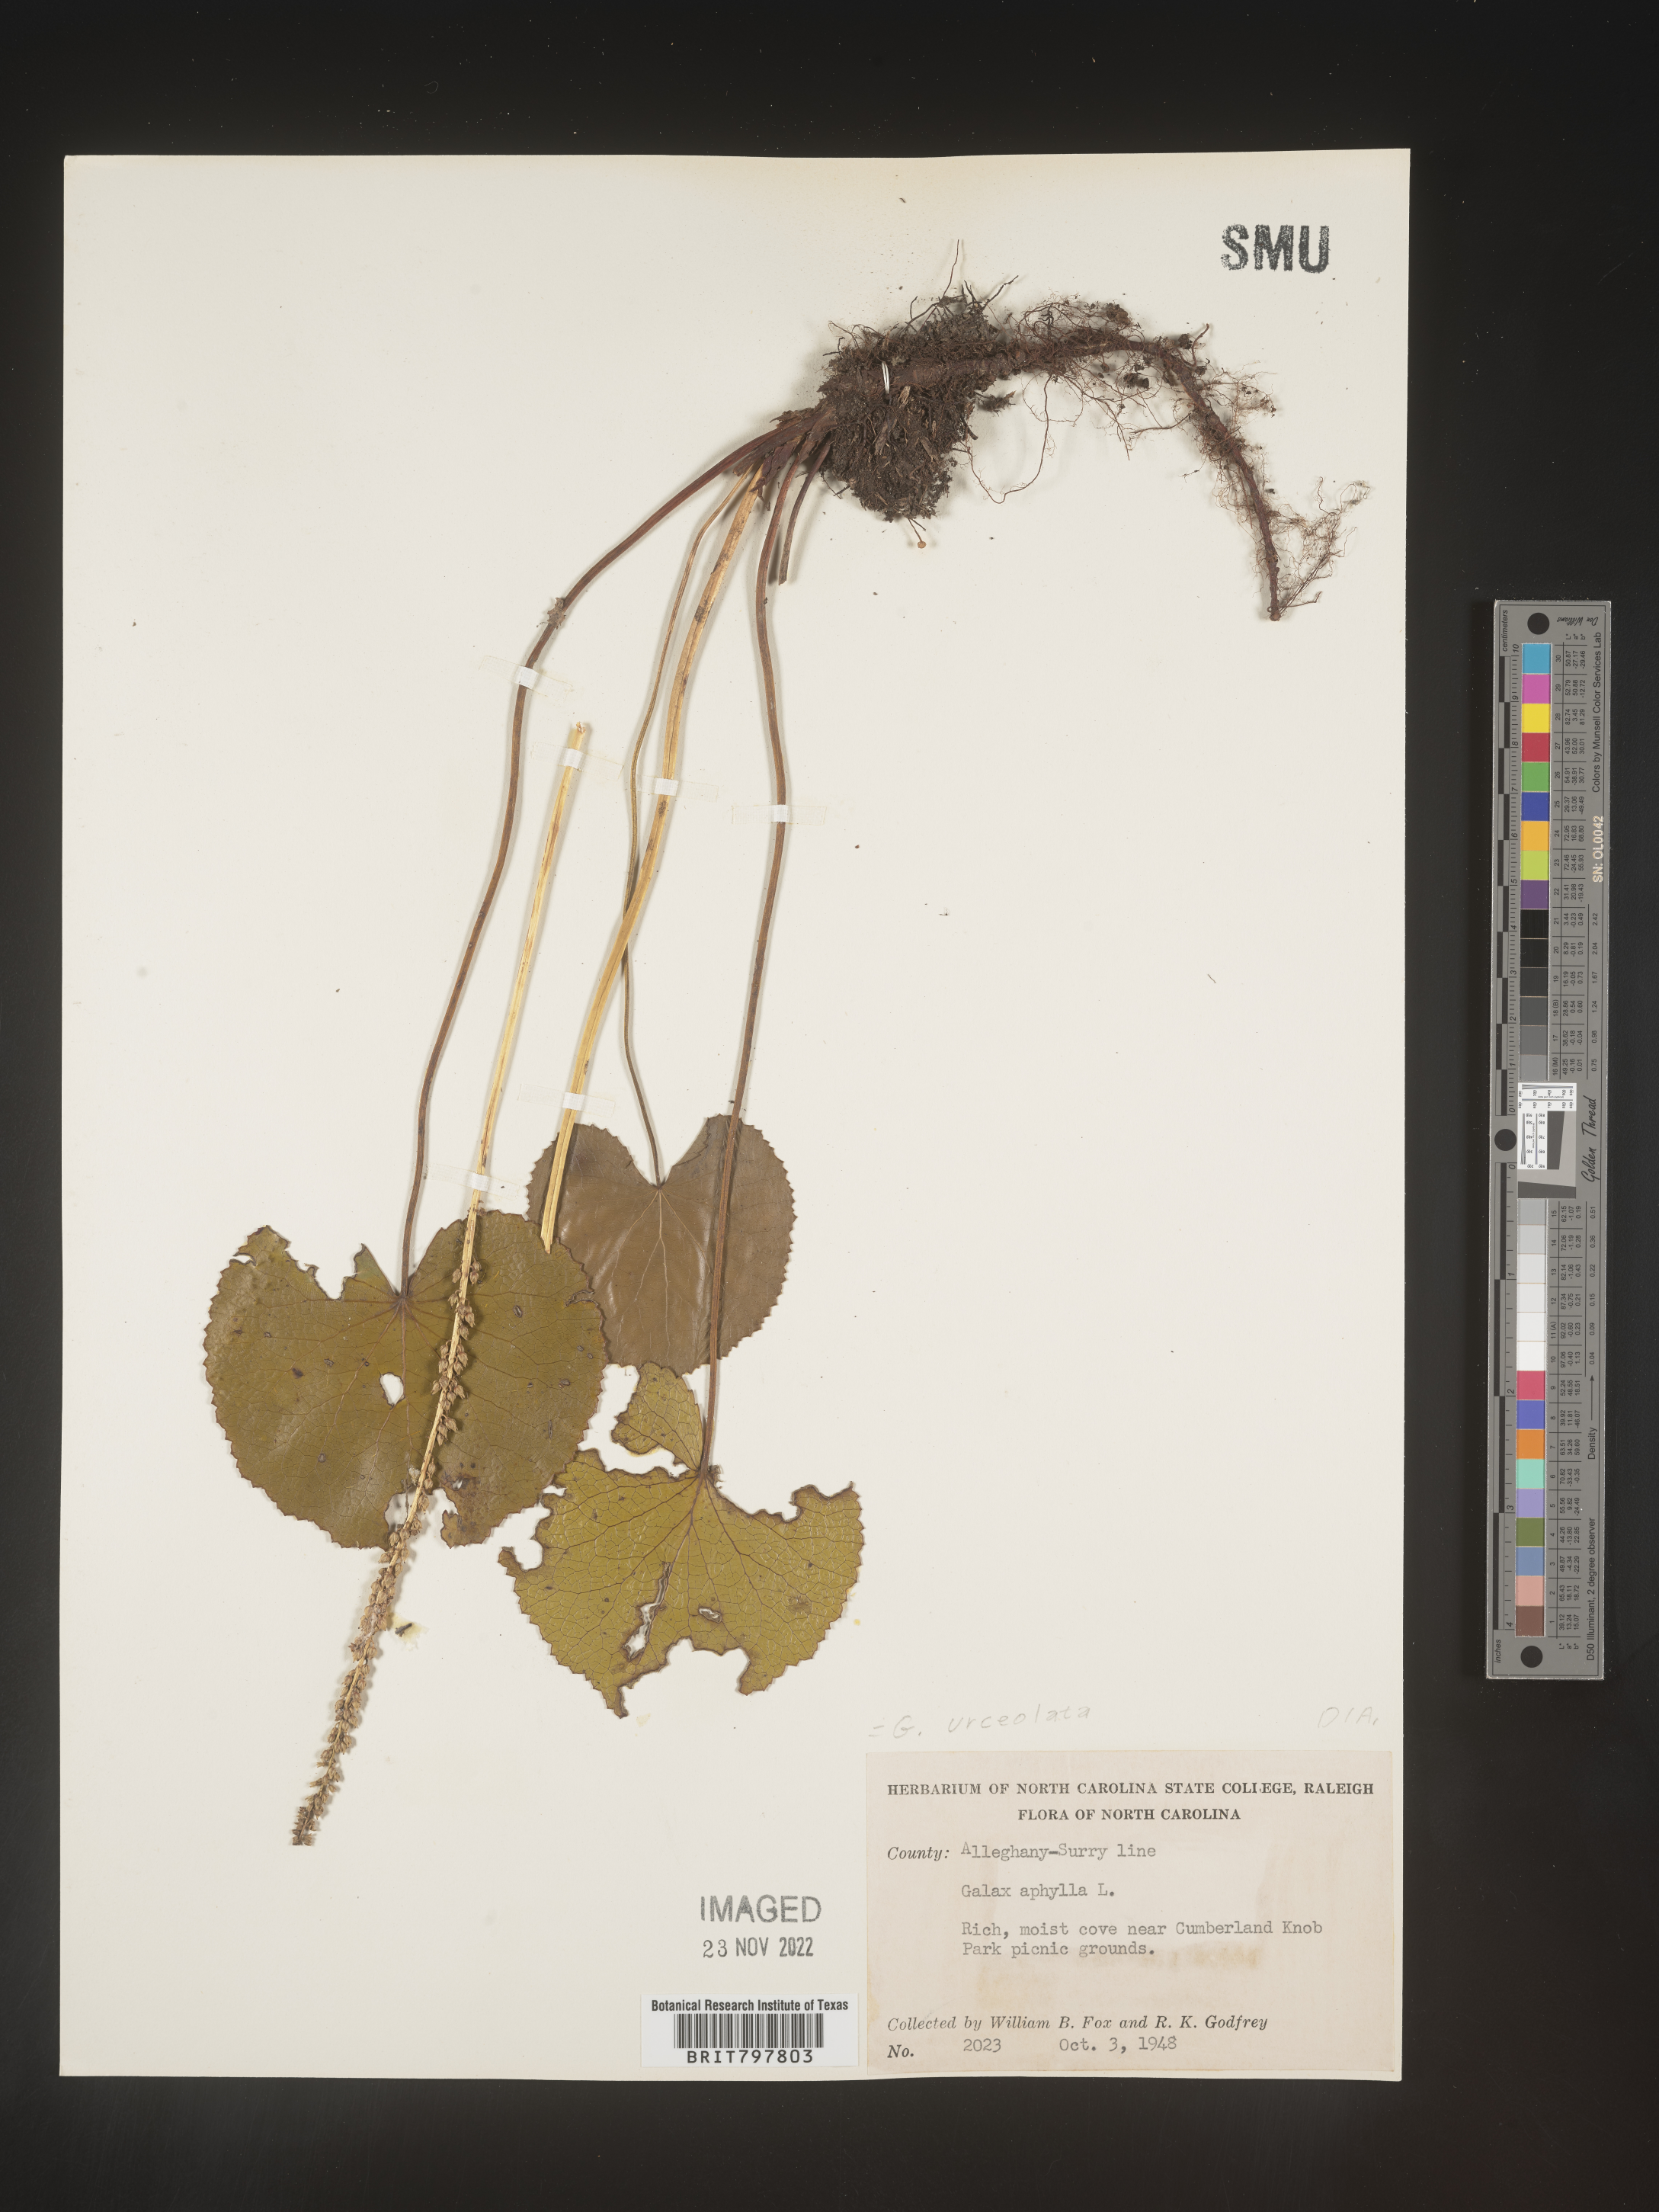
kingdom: Plantae
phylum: Tracheophyta
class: Magnoliopsida
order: Ericales
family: Diapensiaceae
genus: Galax
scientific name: Galax
